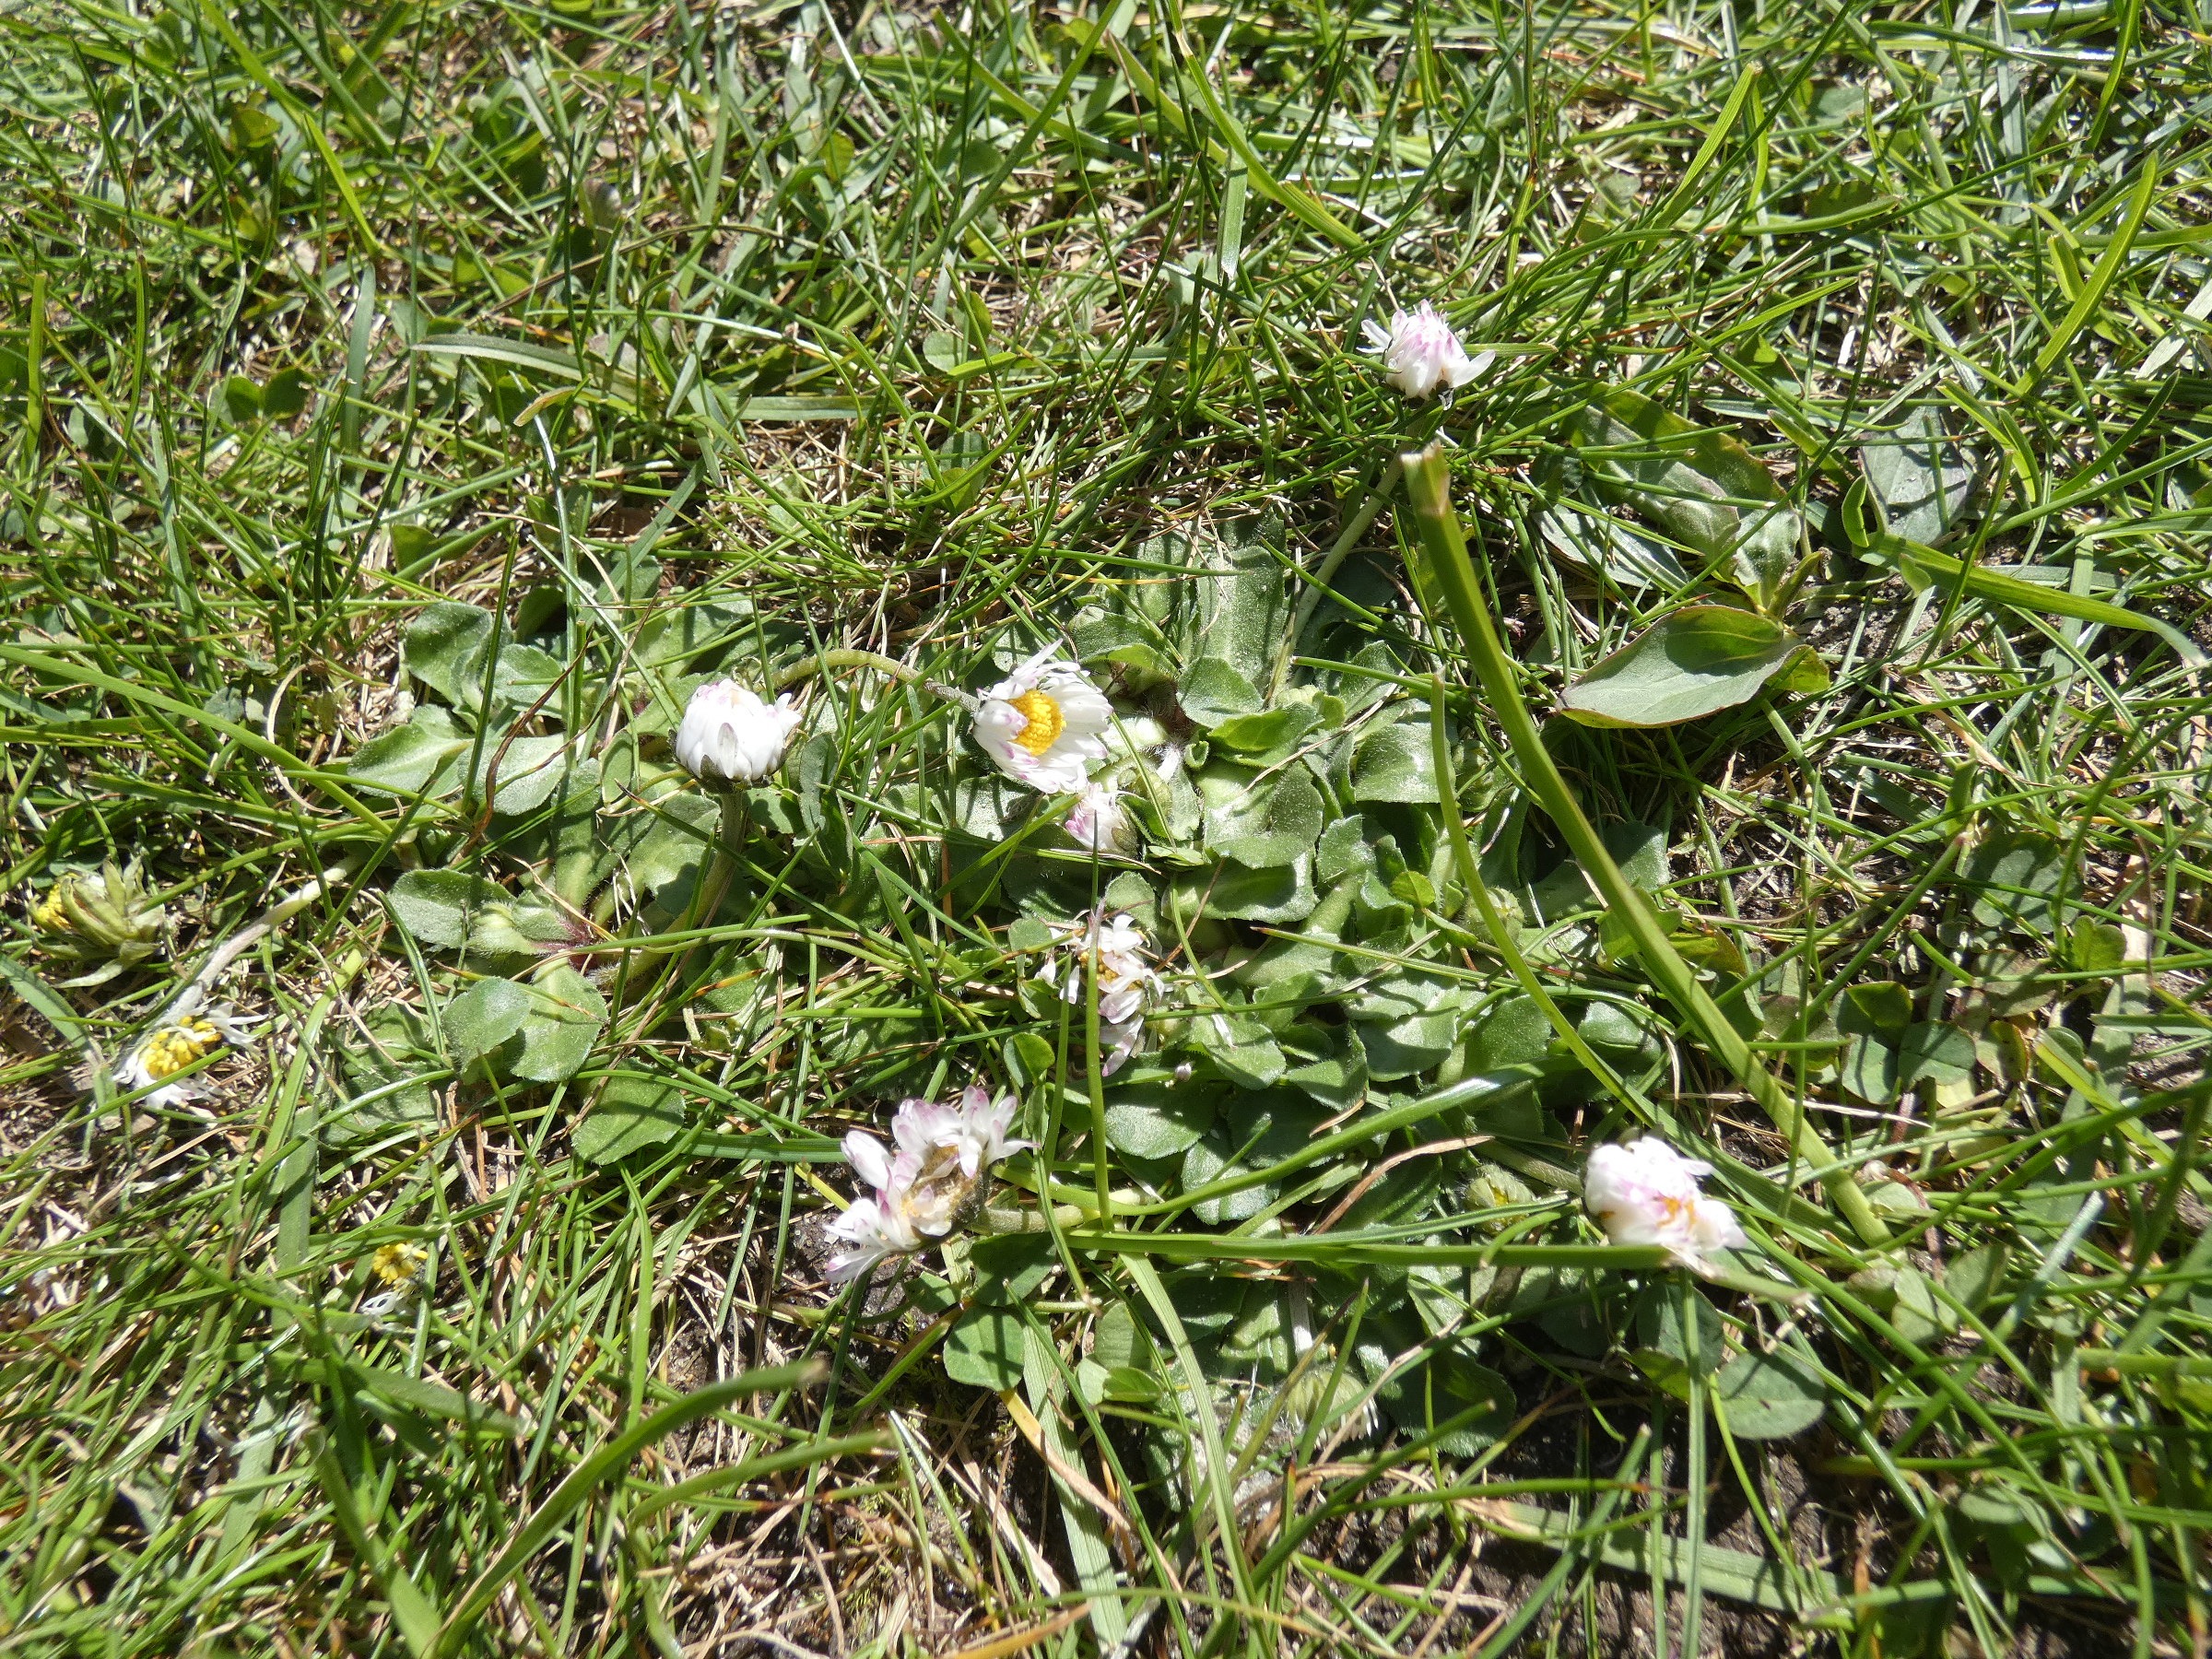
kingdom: Plantae
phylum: Tracheophyta
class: Magnoliopsida
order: Asterales
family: Asteraceae
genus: Bellis
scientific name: Bellis perennis
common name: Tusindfryd
